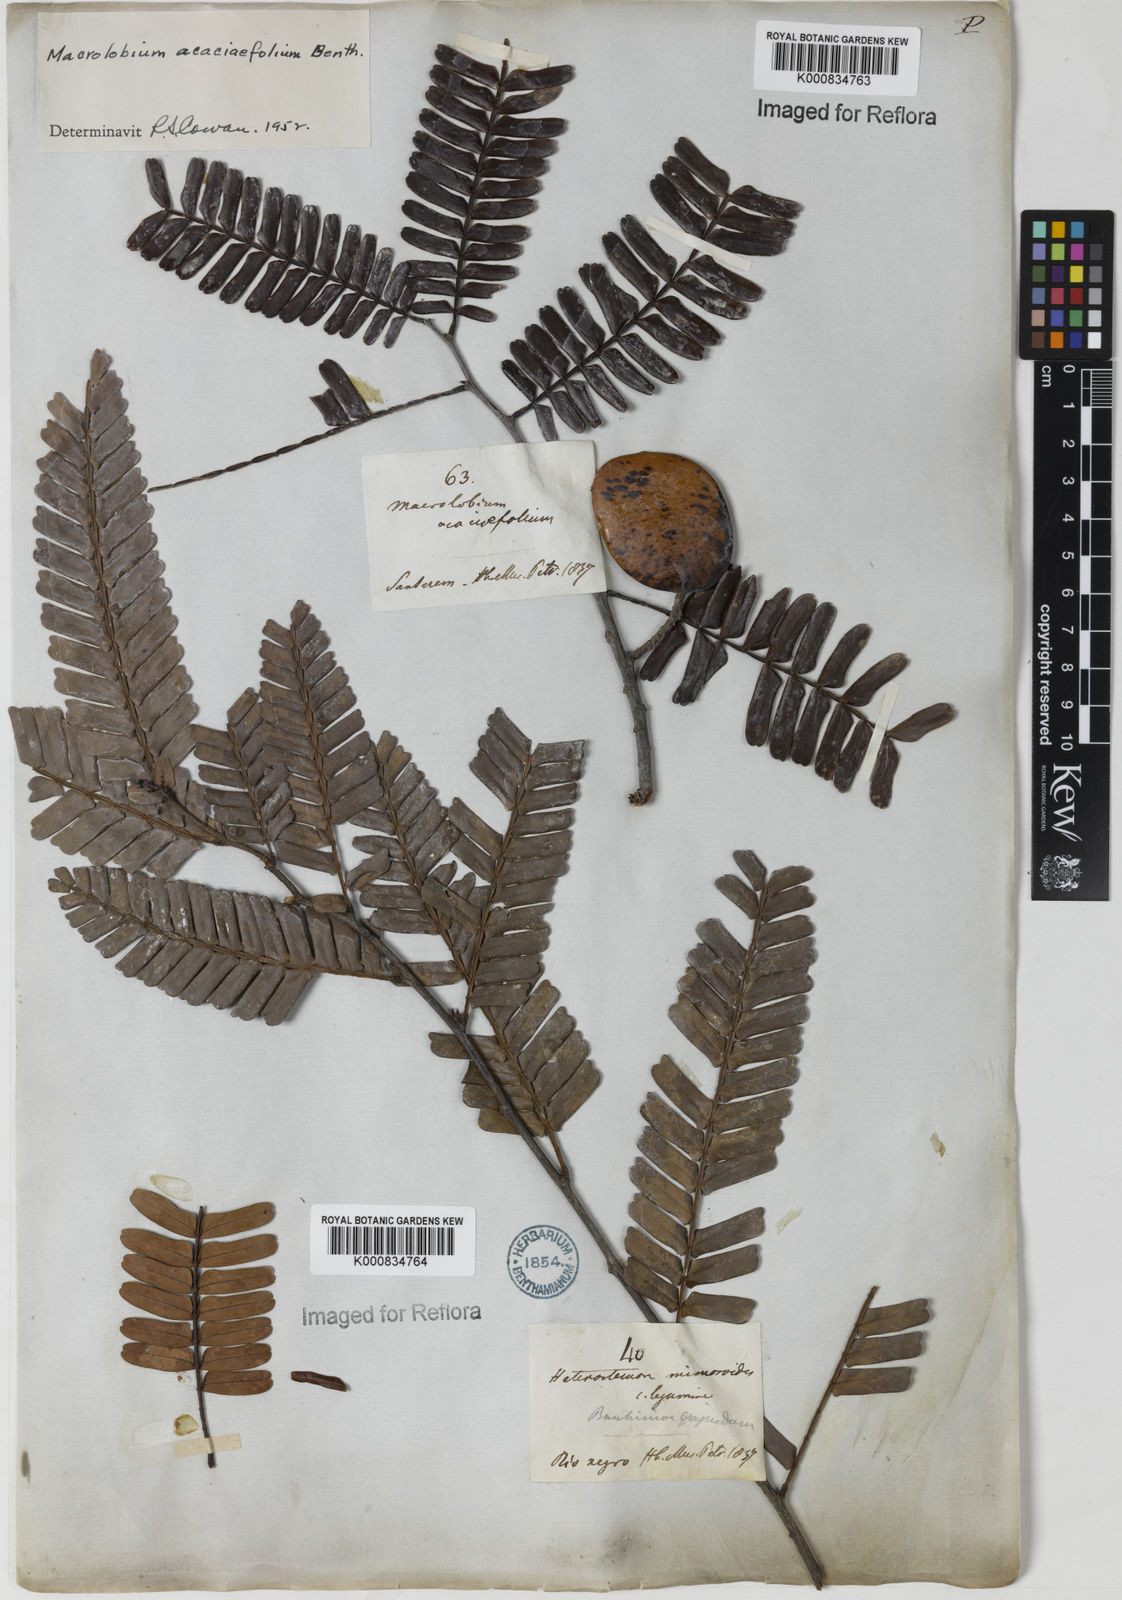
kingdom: Plantae
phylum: Tracheophyta
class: Magnoliopsida
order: Fabales
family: Fabaceae
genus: Macrolobium
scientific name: Macrolobium acaciifolium
